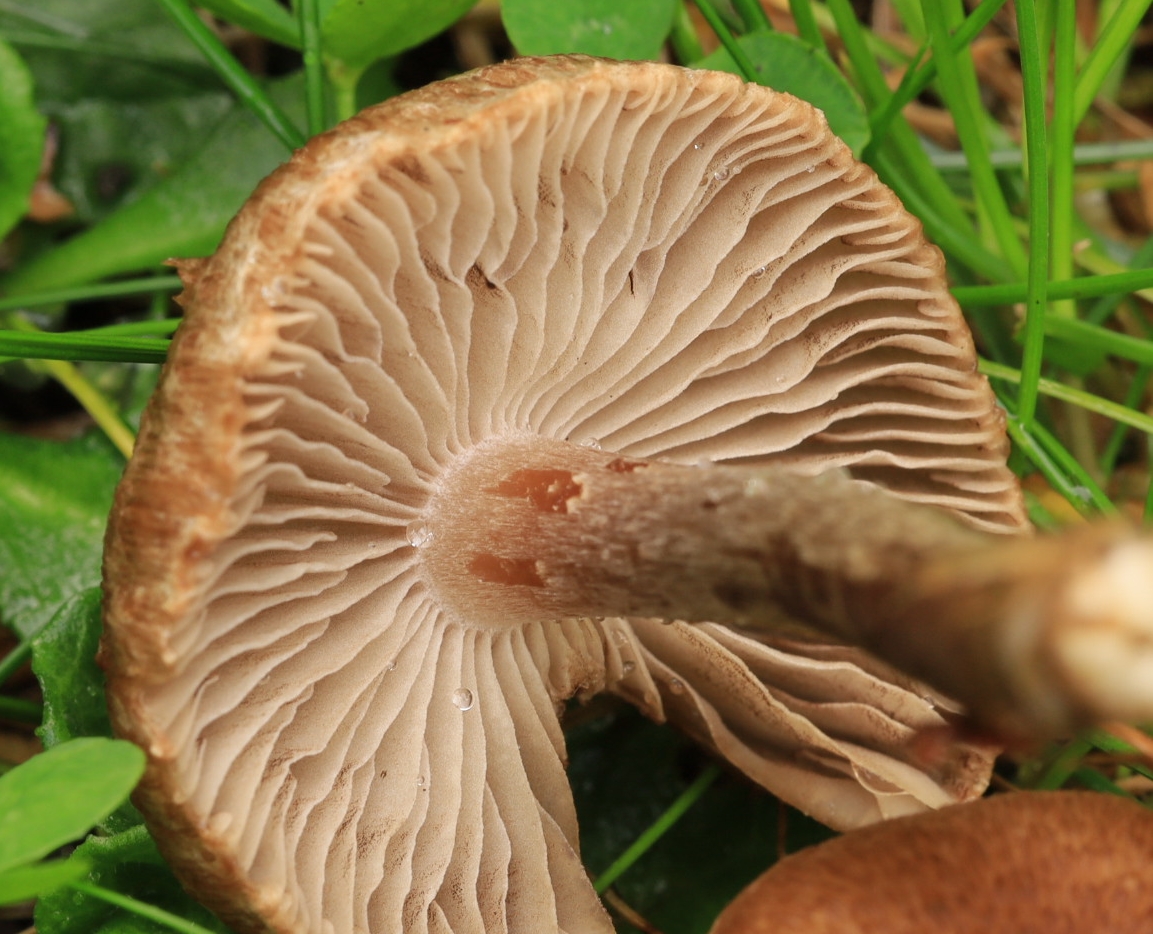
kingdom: Fungi
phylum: Basidiomycota
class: Agaricomycetes
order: Agaricales
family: Inocybaceae
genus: Inocybe
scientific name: Inocybe curvipes
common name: plæne-trævlhat
